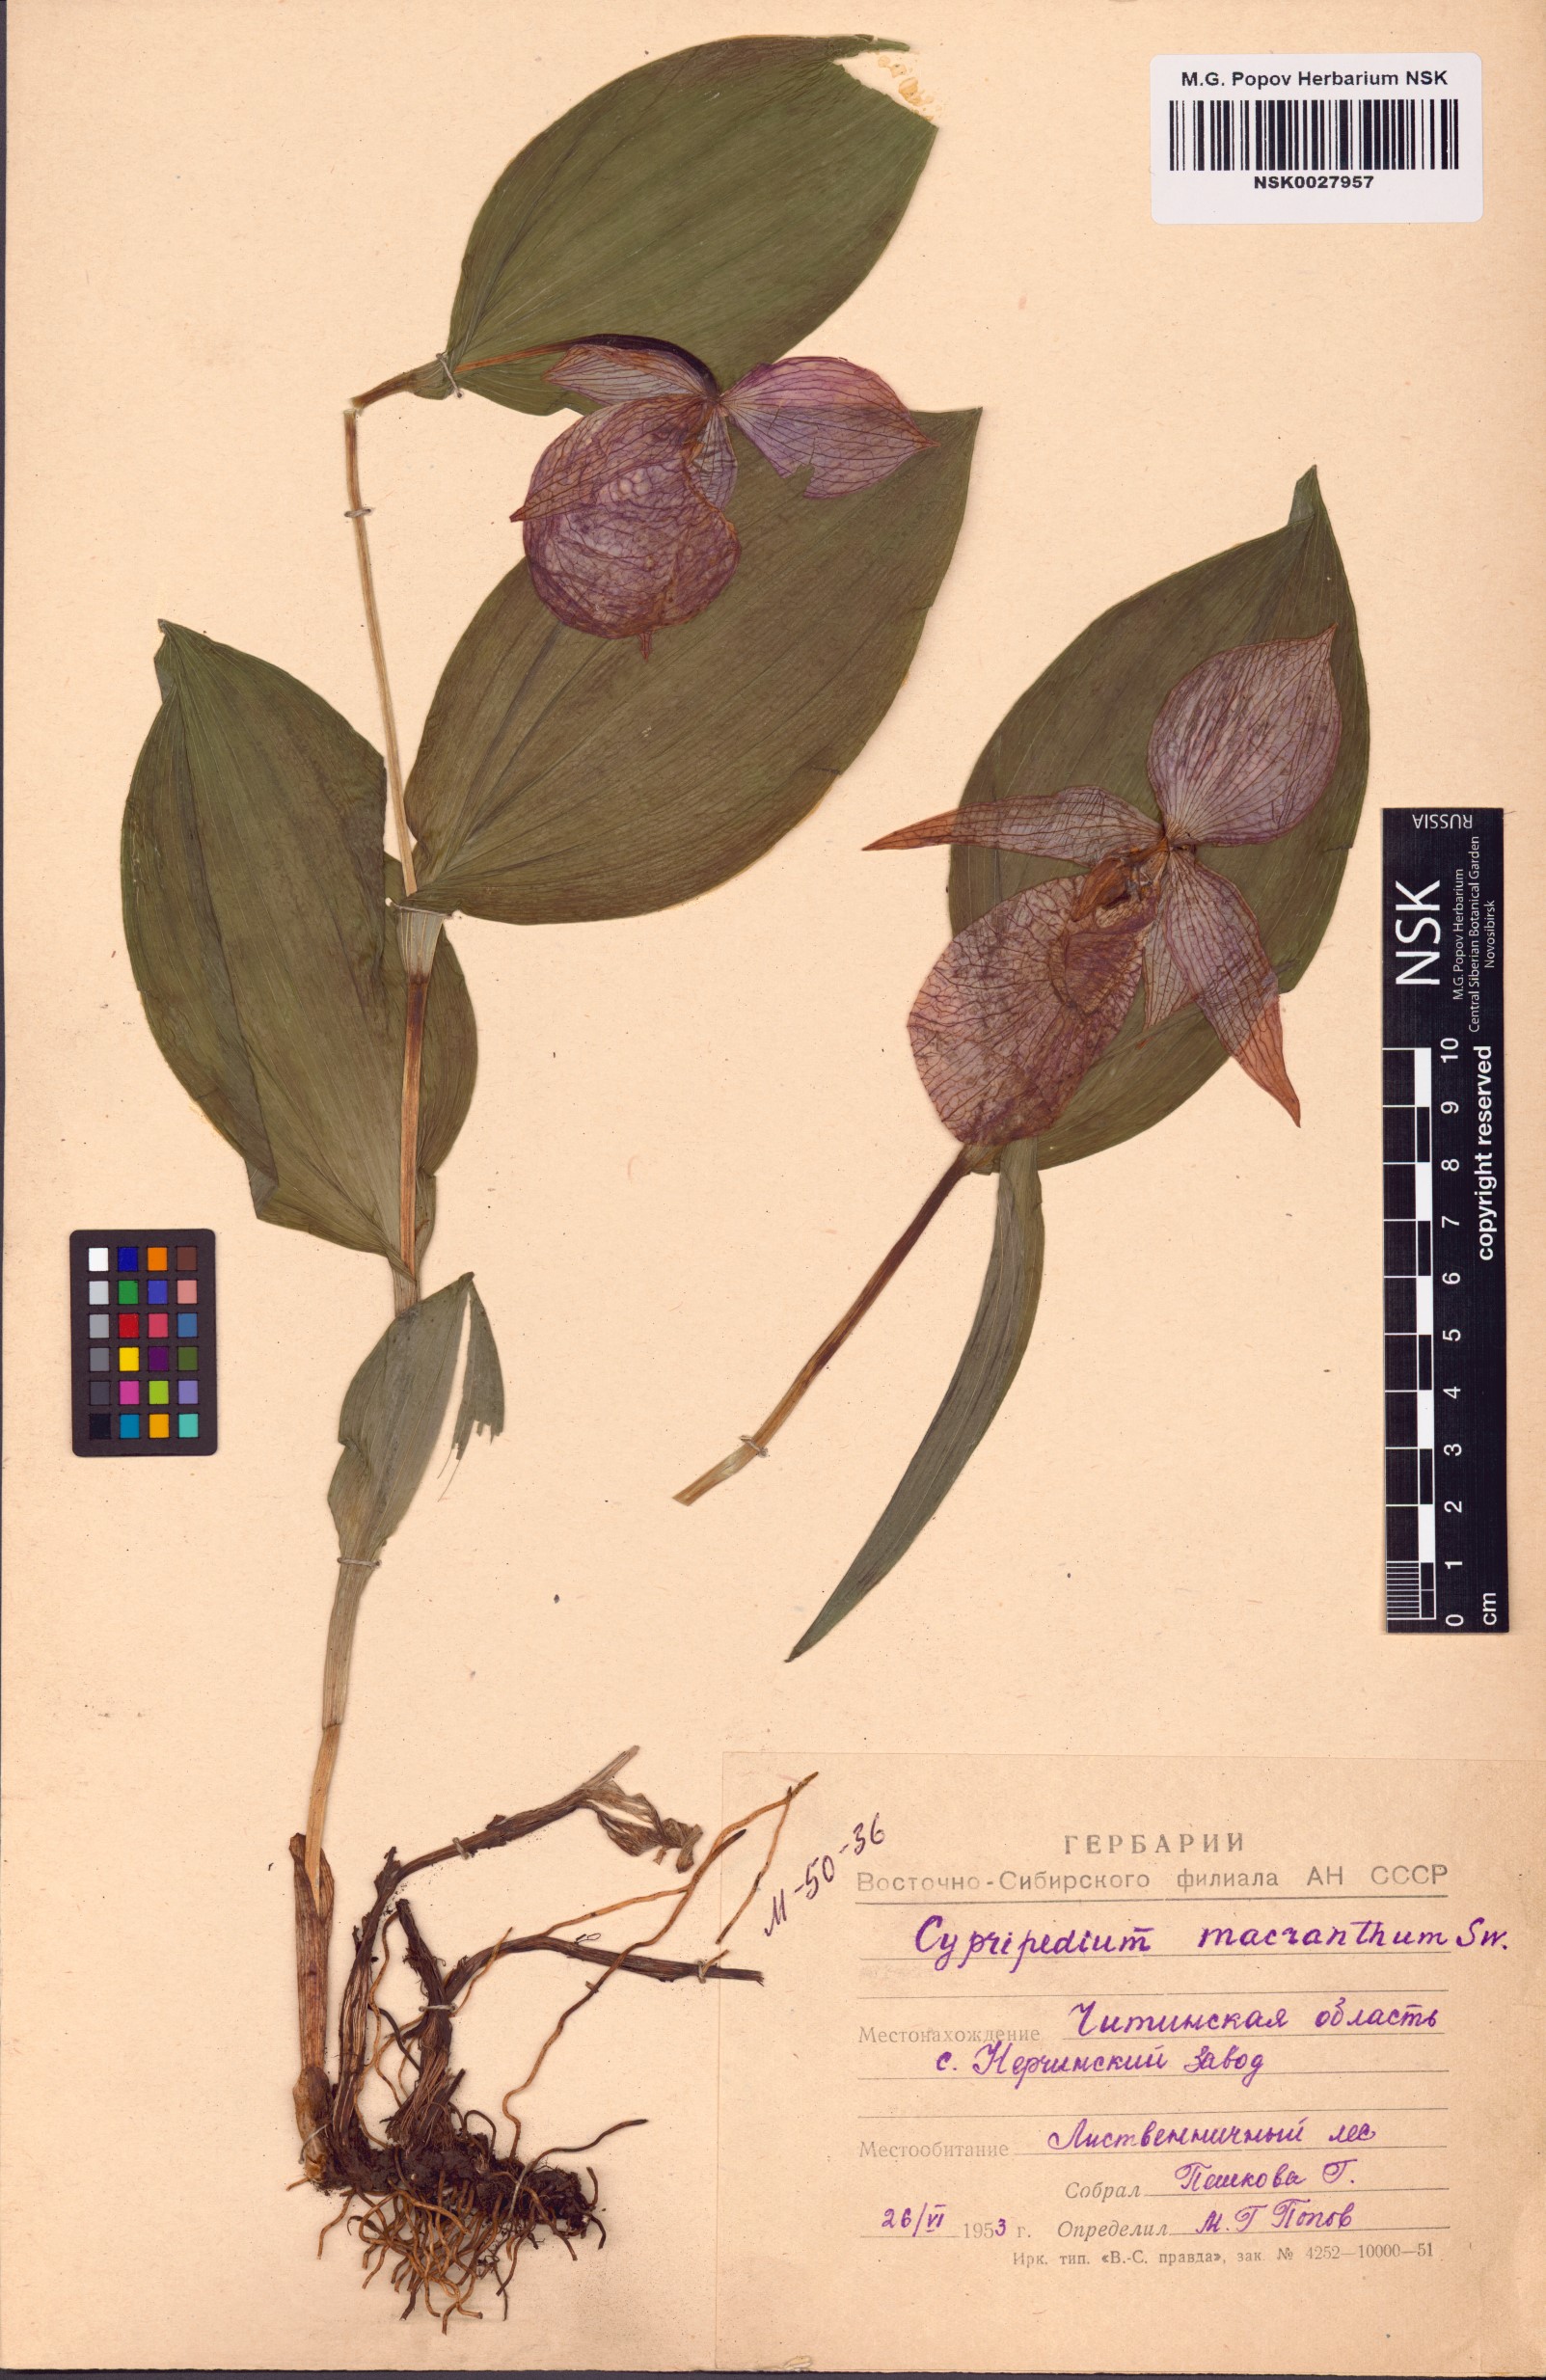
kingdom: Plantae
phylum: Tracheophyta
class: Liliopsida
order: Asparagales
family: Orchidaceae
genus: Cypripedium
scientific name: Cypripedium macranthos
